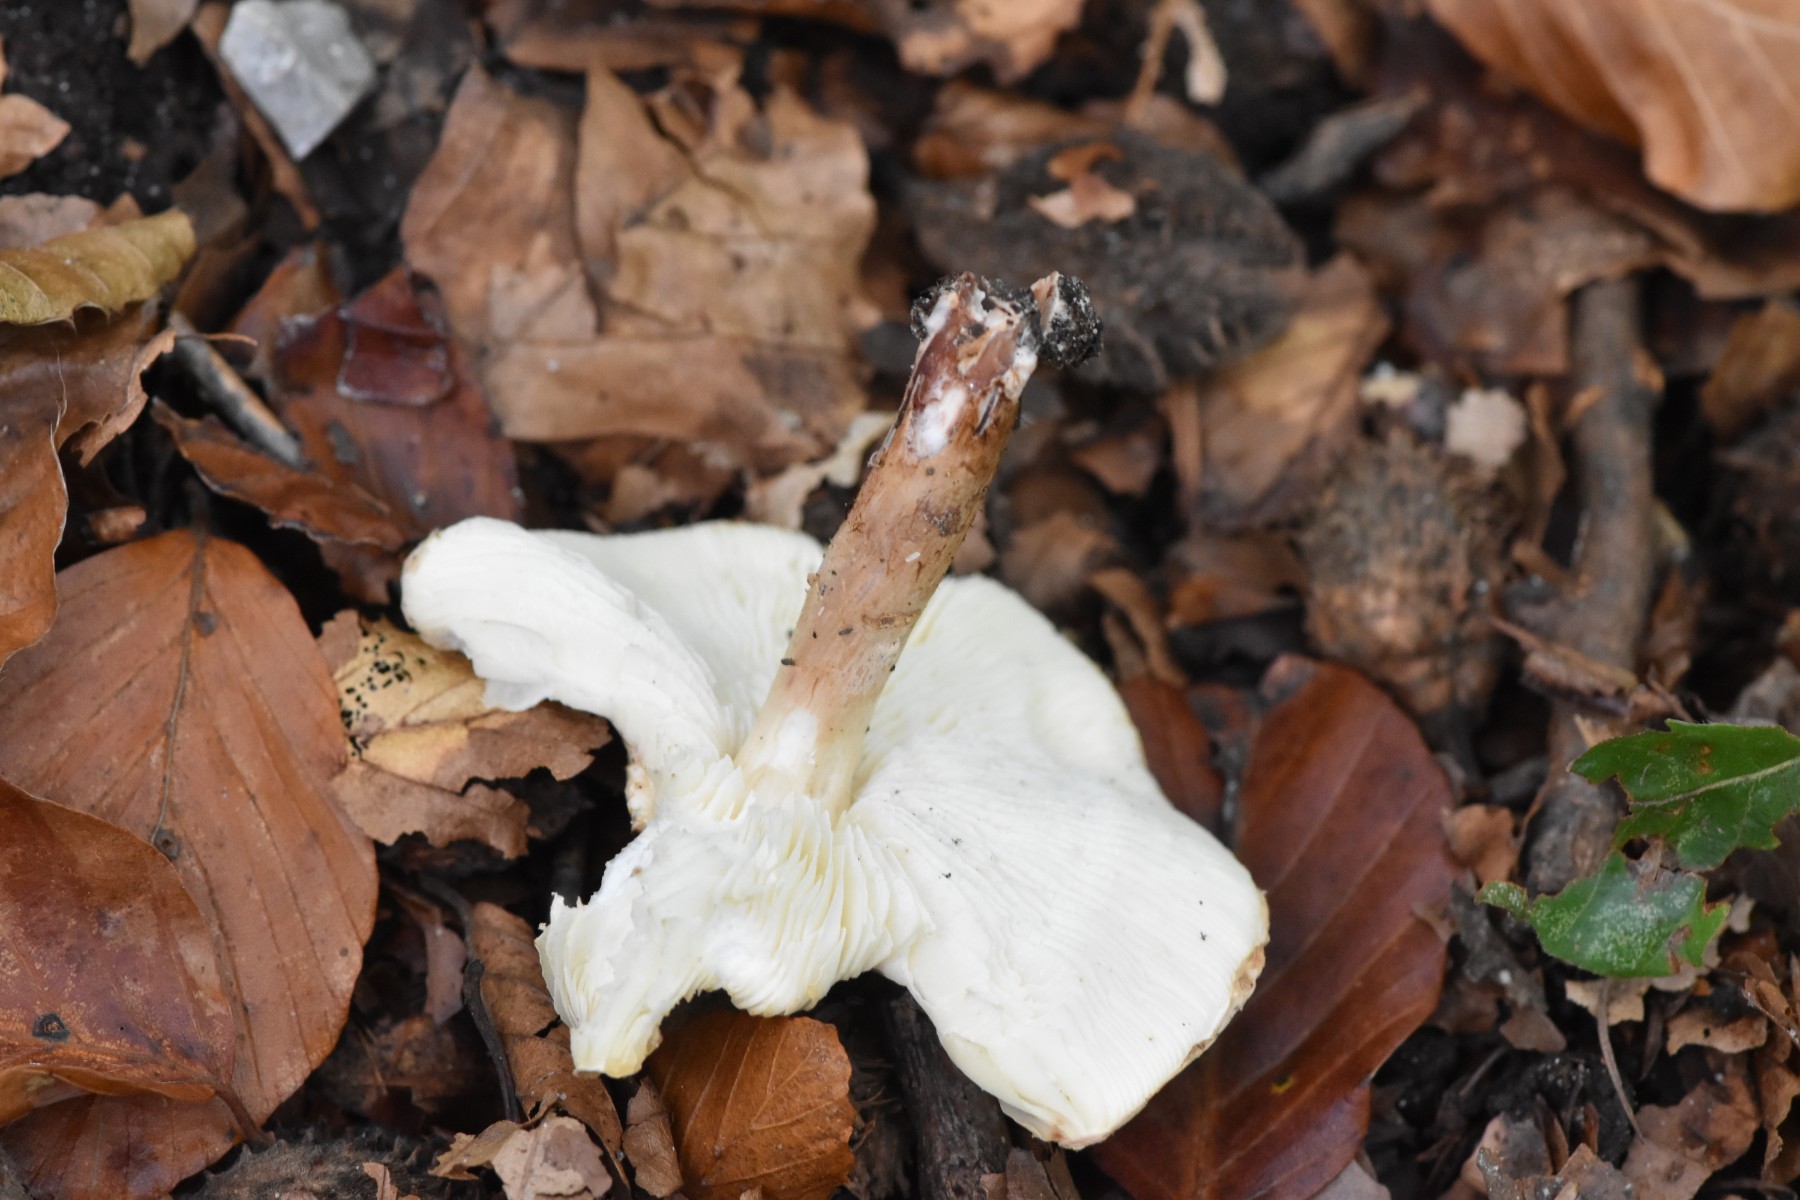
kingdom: Fungi
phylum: Basidiomycota
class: Agaricomycetes
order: Agaricales
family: Agaricaceae
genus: Leucocoprinus
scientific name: Leucocoprinus straminellus
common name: rustbrun parasolhat
